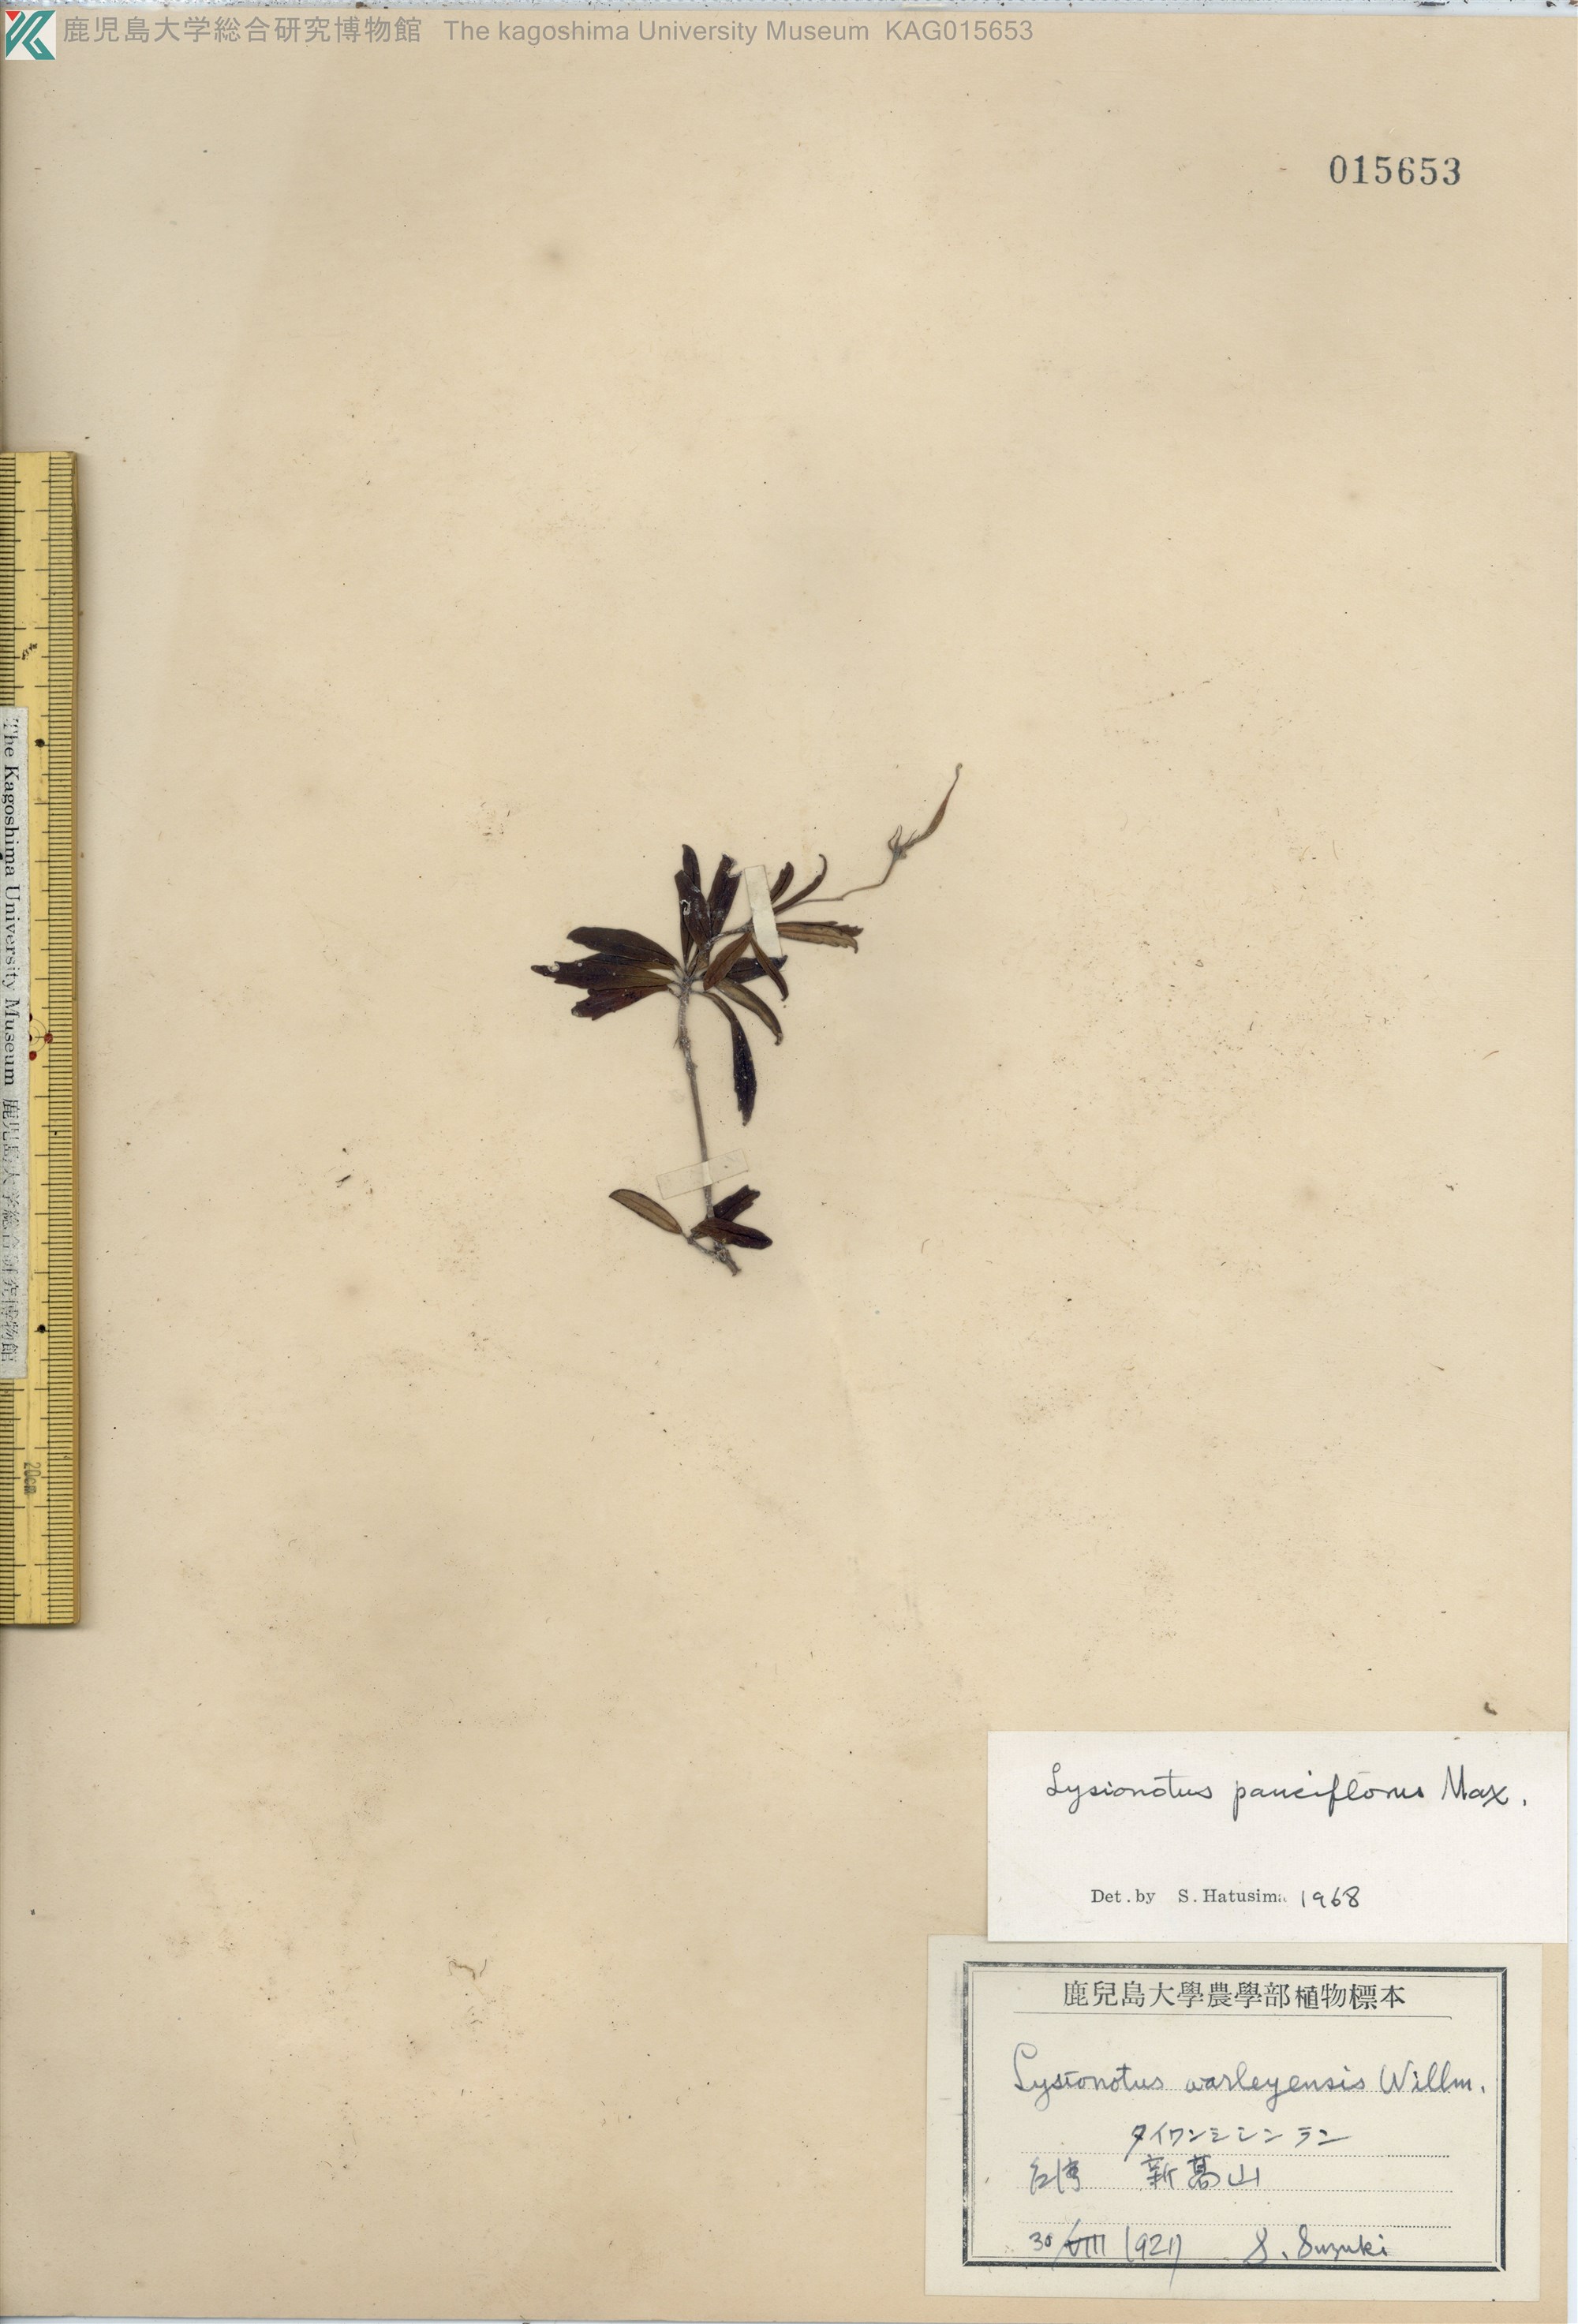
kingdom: Plantae
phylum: Tracheophyta
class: Magnoliopsida
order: Lamiales
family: Gesneriaceae
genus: Lysionotus
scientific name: Lysionotus pauciflorus
